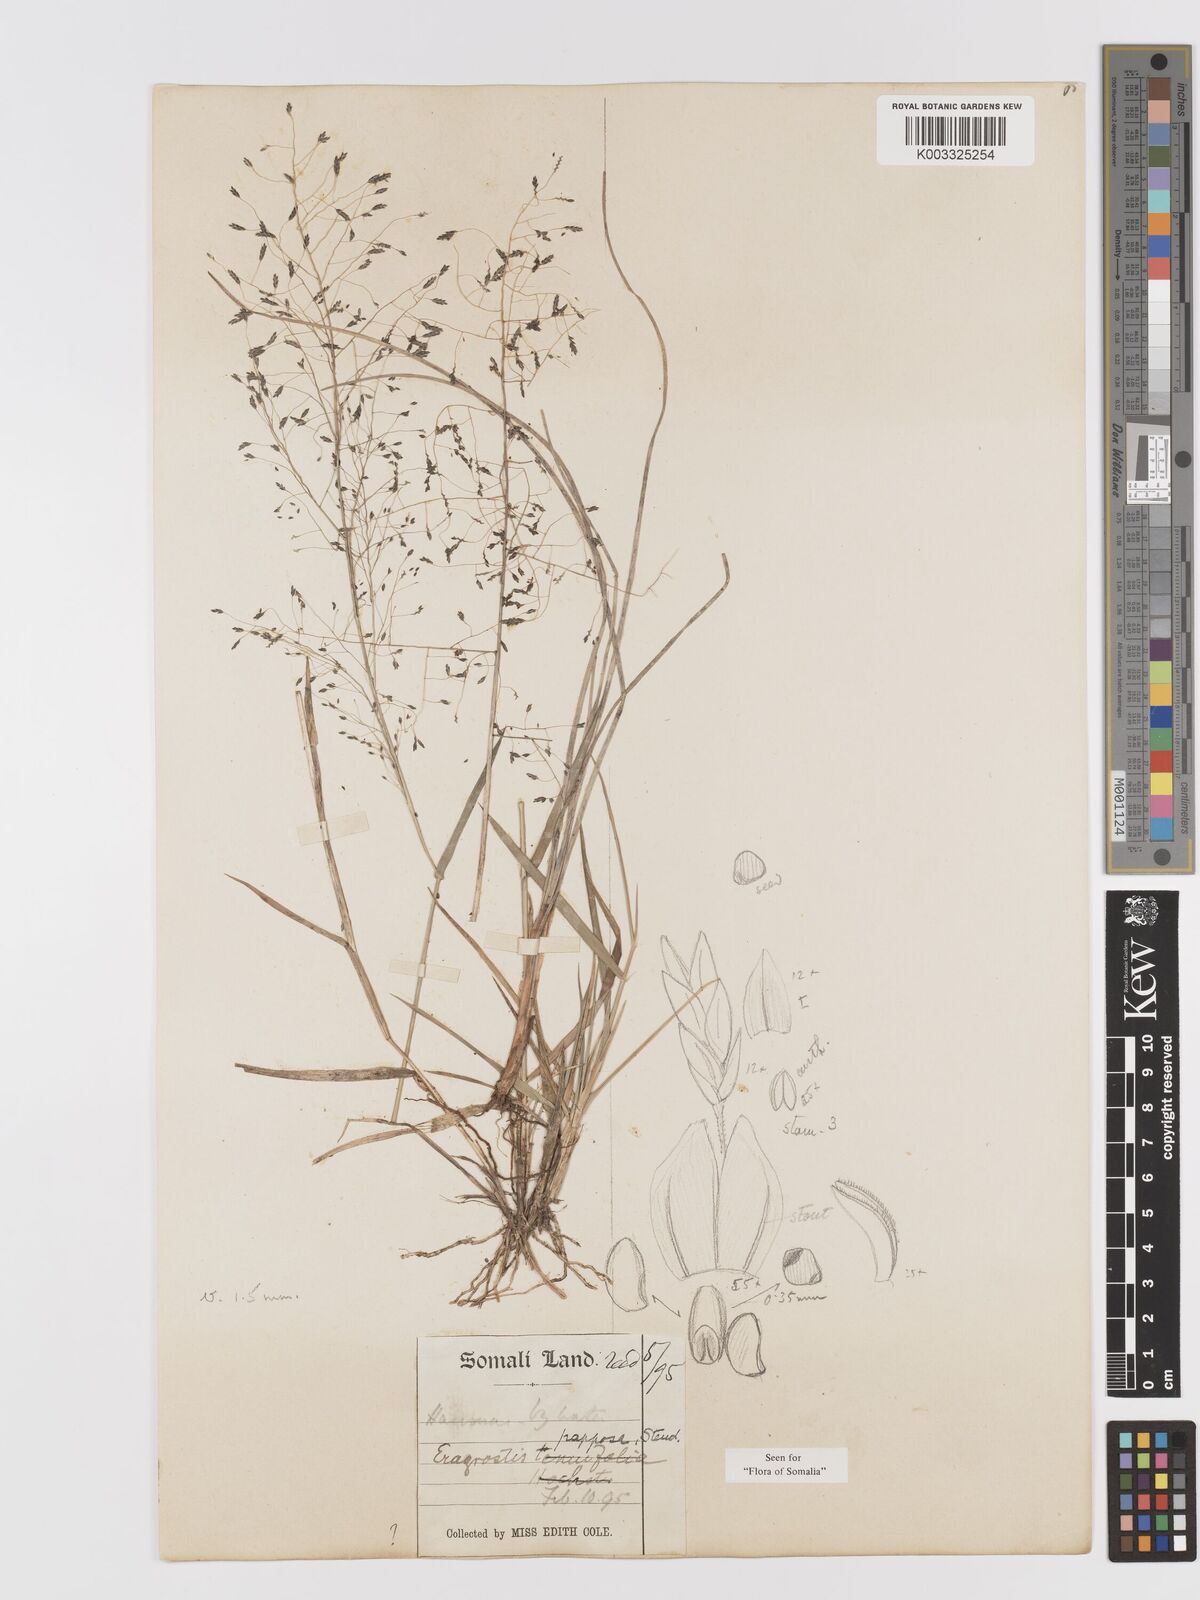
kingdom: Plantae
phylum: Tracheophyta
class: Liliopsida
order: Poales
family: Poaceae
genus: Eragrostis
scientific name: Eragrostis papposa
